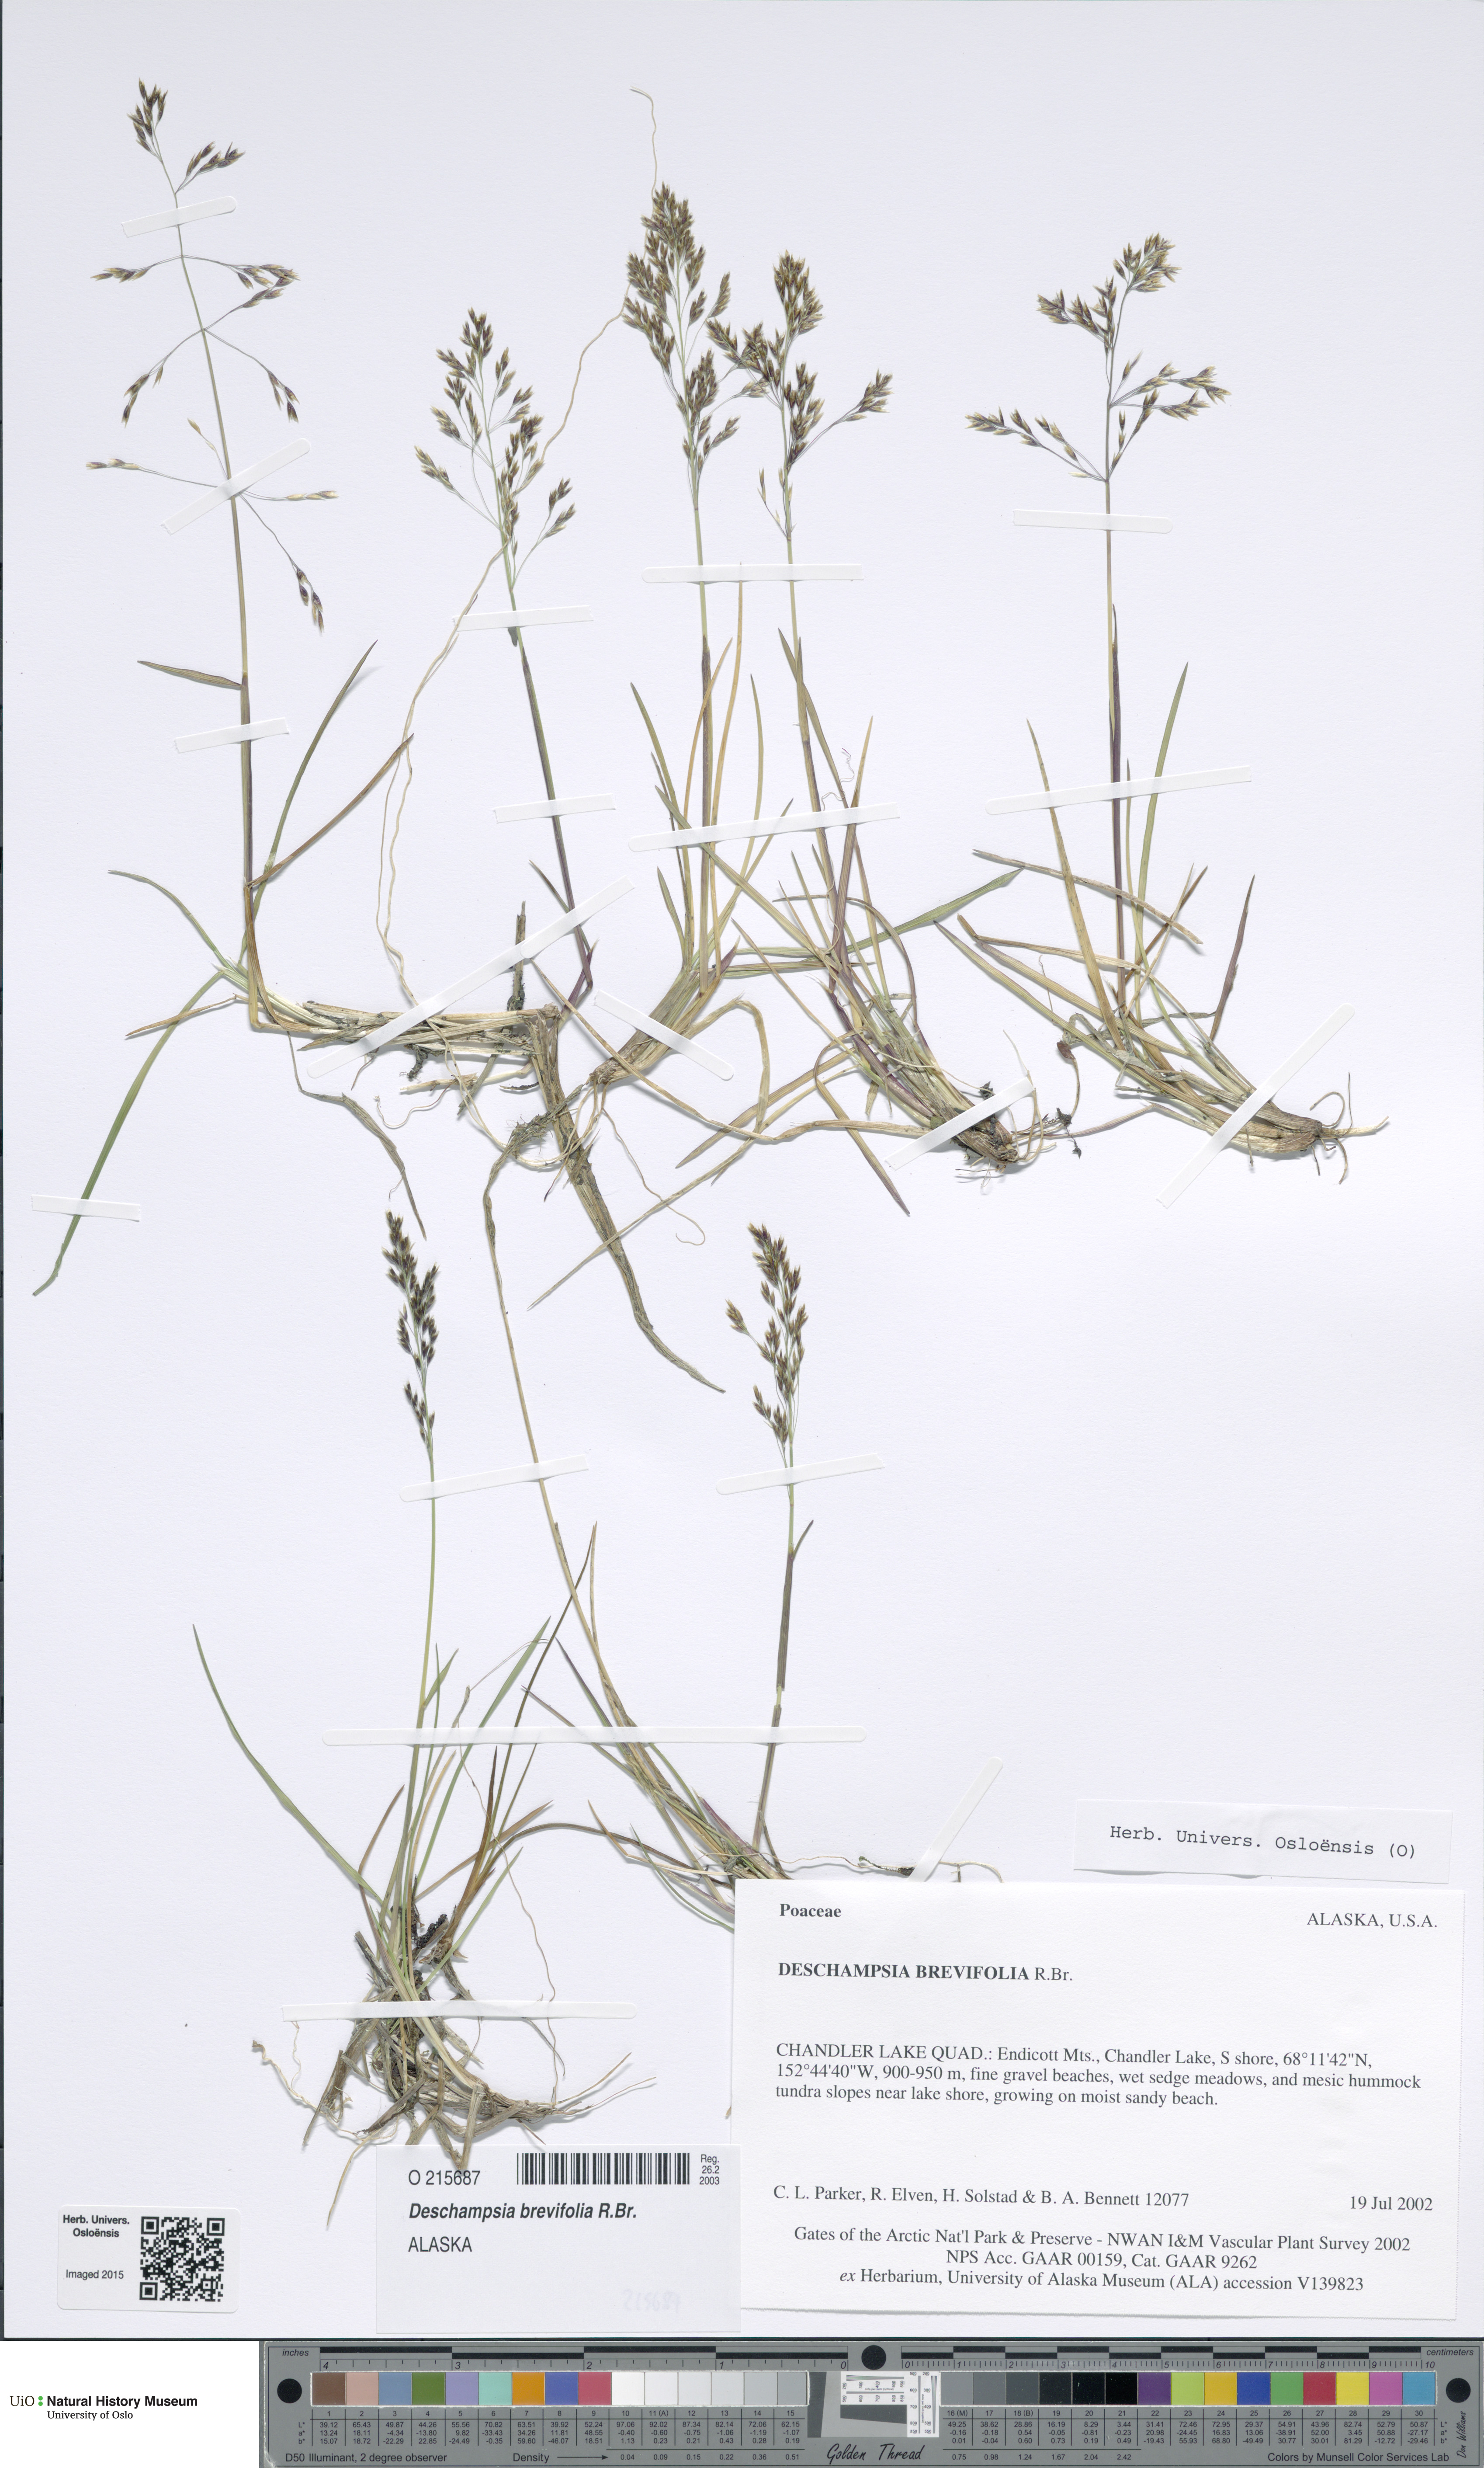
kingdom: Plantae
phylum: Tracheophyta
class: Liliopsida
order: Poales
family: Poaceae
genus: Deschampsia
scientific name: Deschampsia cespitosa
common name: Tufted hair-grass
